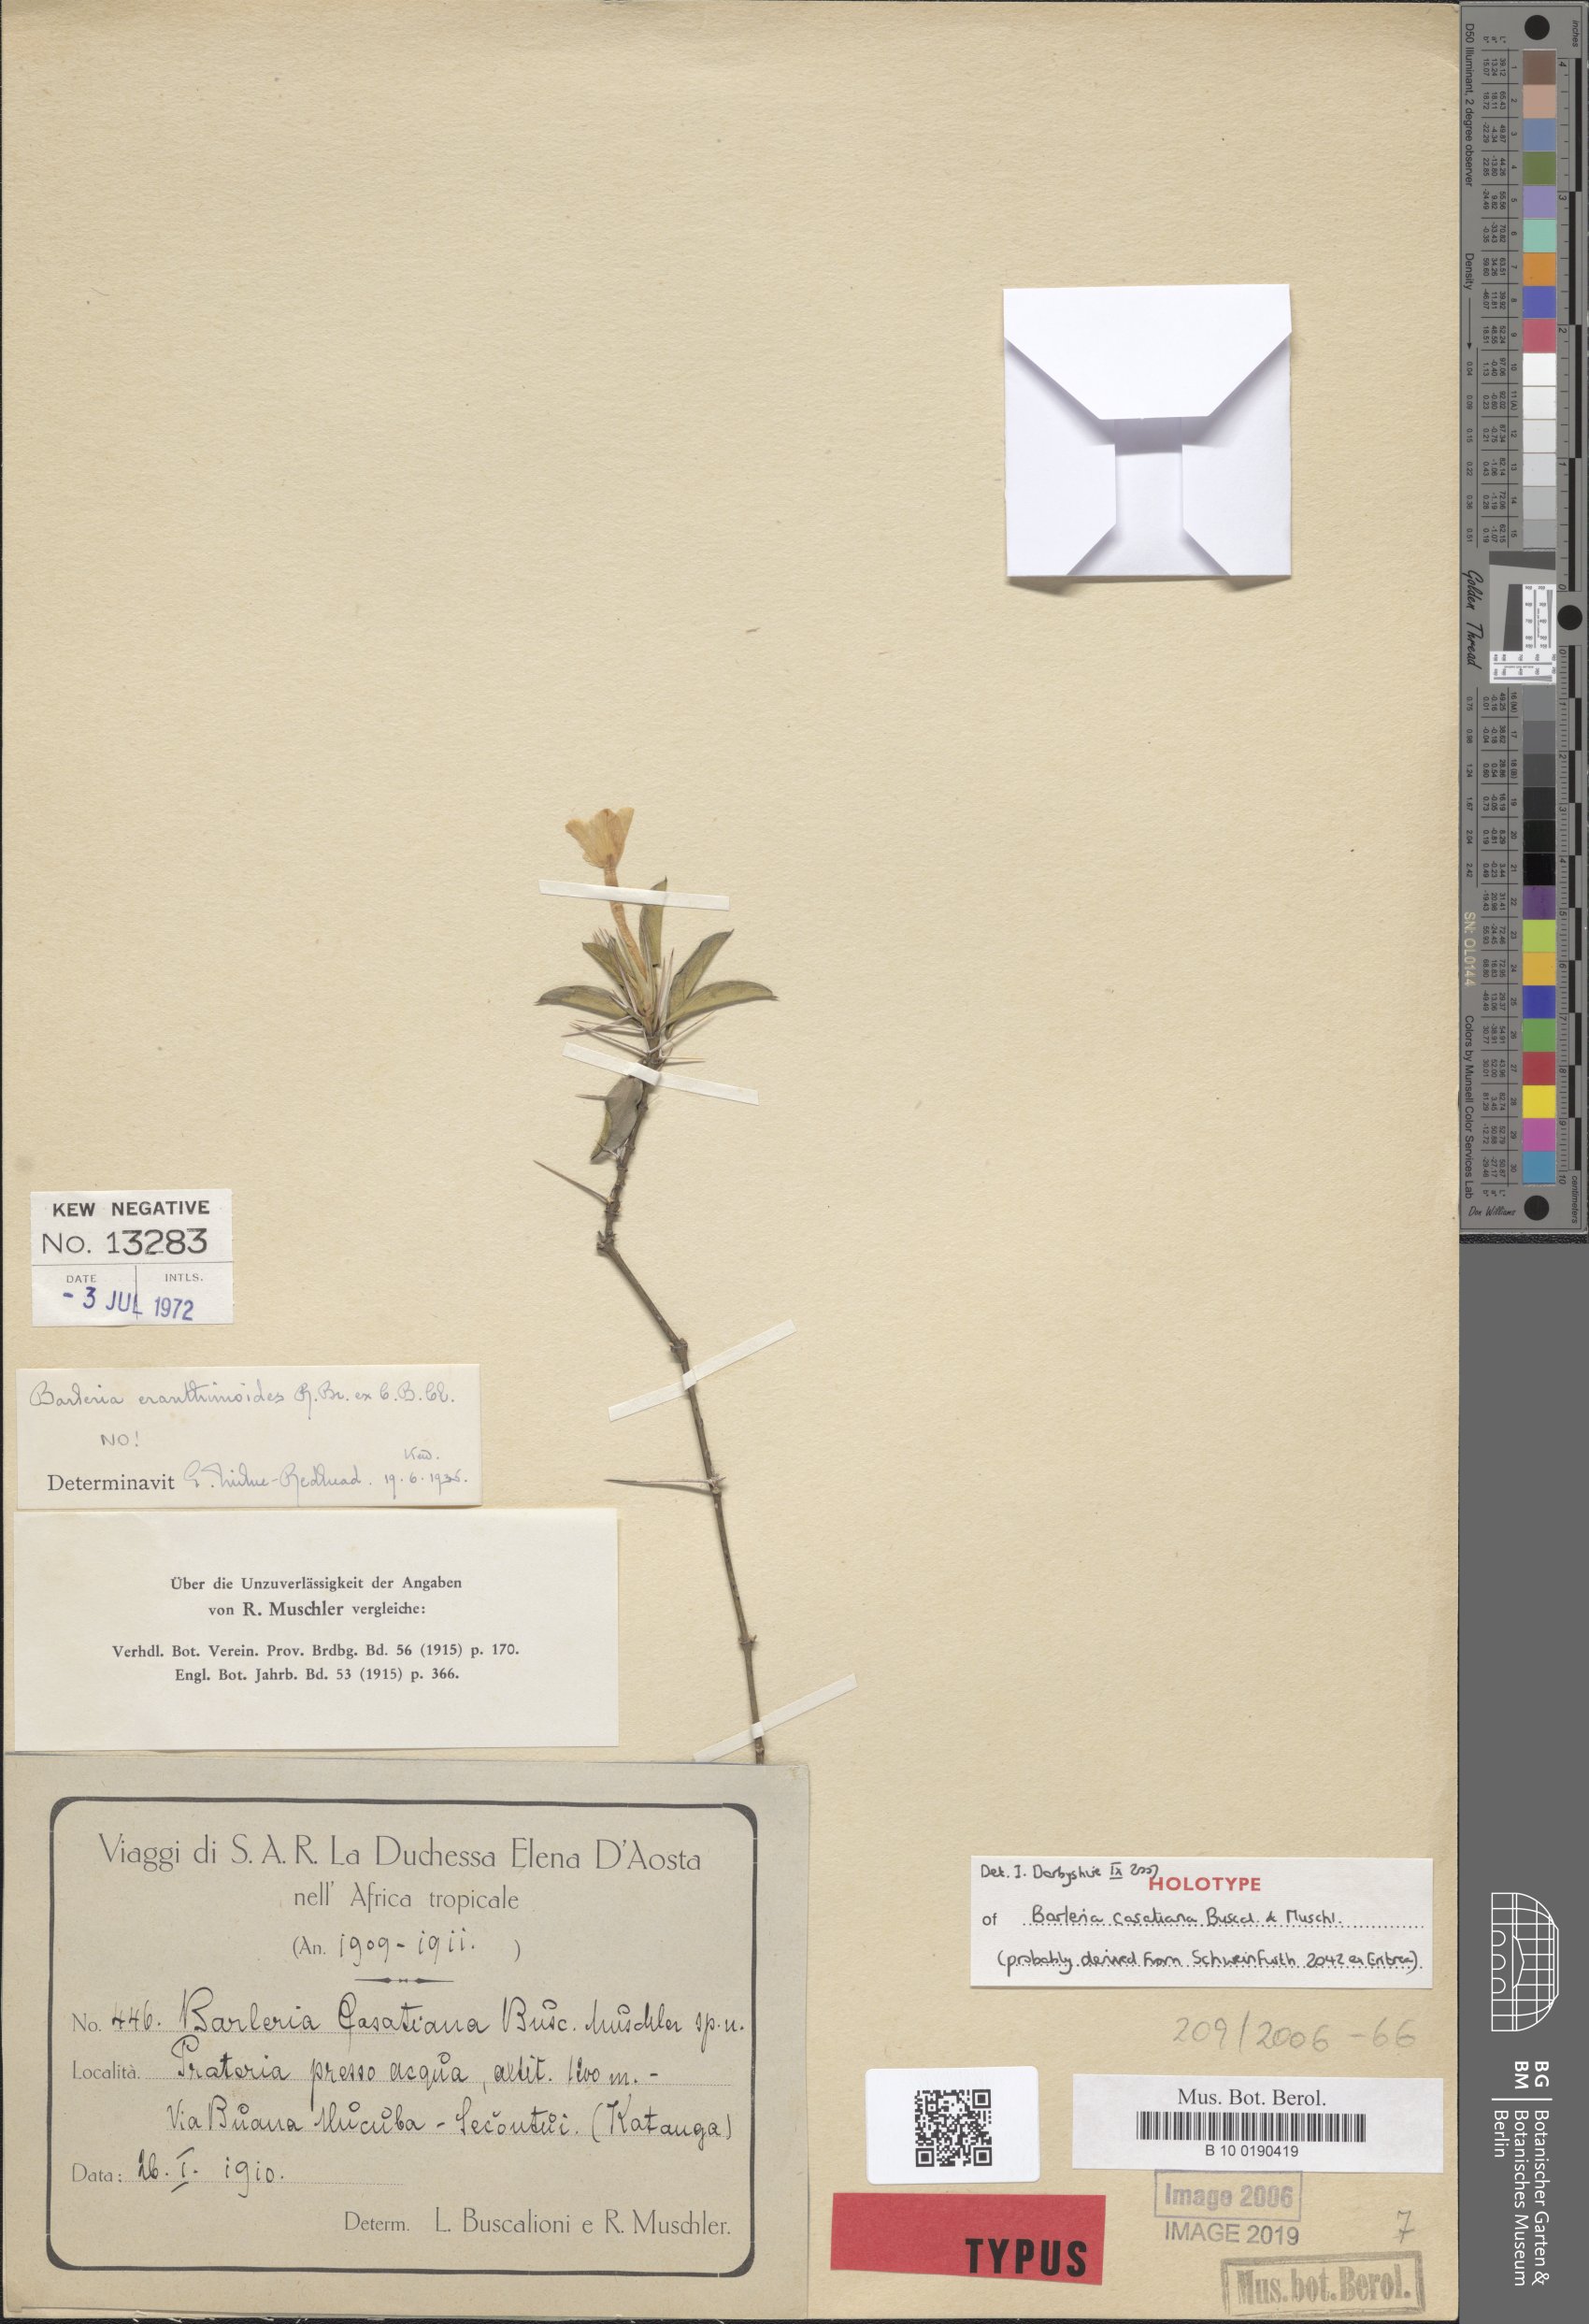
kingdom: Plantae
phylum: Tracheophyta
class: Magnoliopsida
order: Lamiales
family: Acanthaceae
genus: Barleria
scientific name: Barleria eranthemoides
